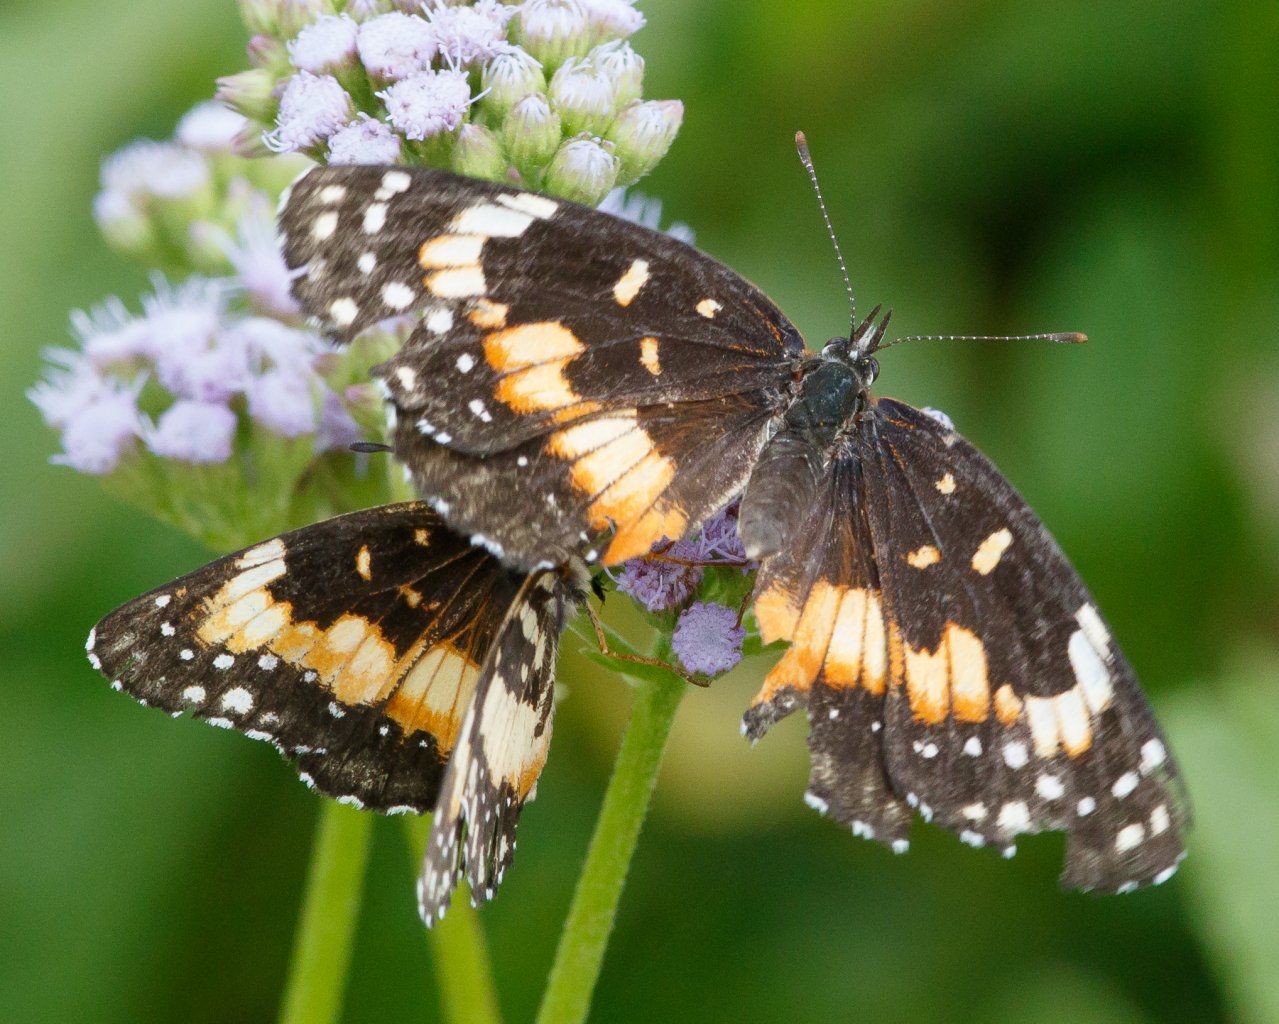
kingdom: Animalia
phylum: Arthropoda
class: Insecta
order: Lepidoptera
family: Nymphalidae
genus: Chlosyne
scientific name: Chlosyne lacinia
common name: Bordered Patch
